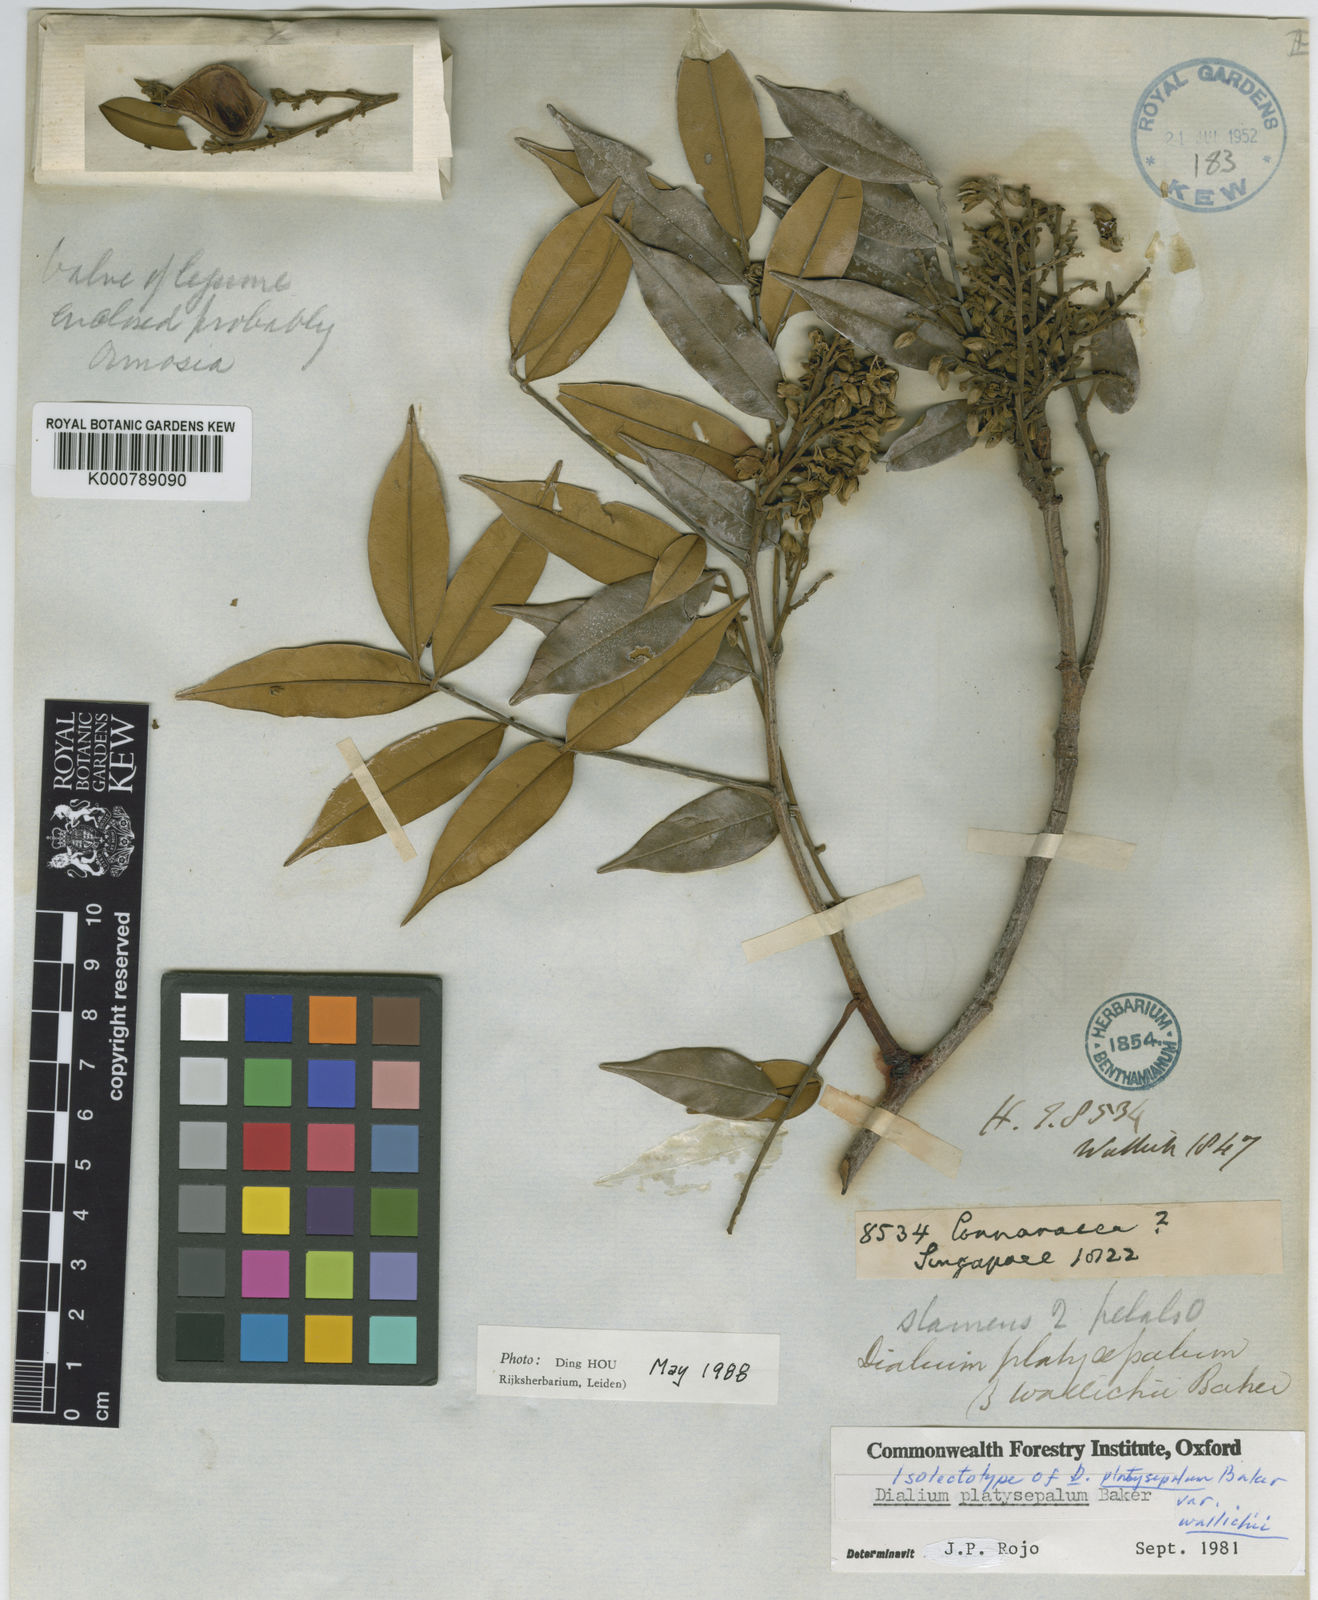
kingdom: Plantae
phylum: Tracheophyta
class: Magnoliopsida
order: Fabales
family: Fabaceae
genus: Dialium
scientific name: Dialium platysepalum
